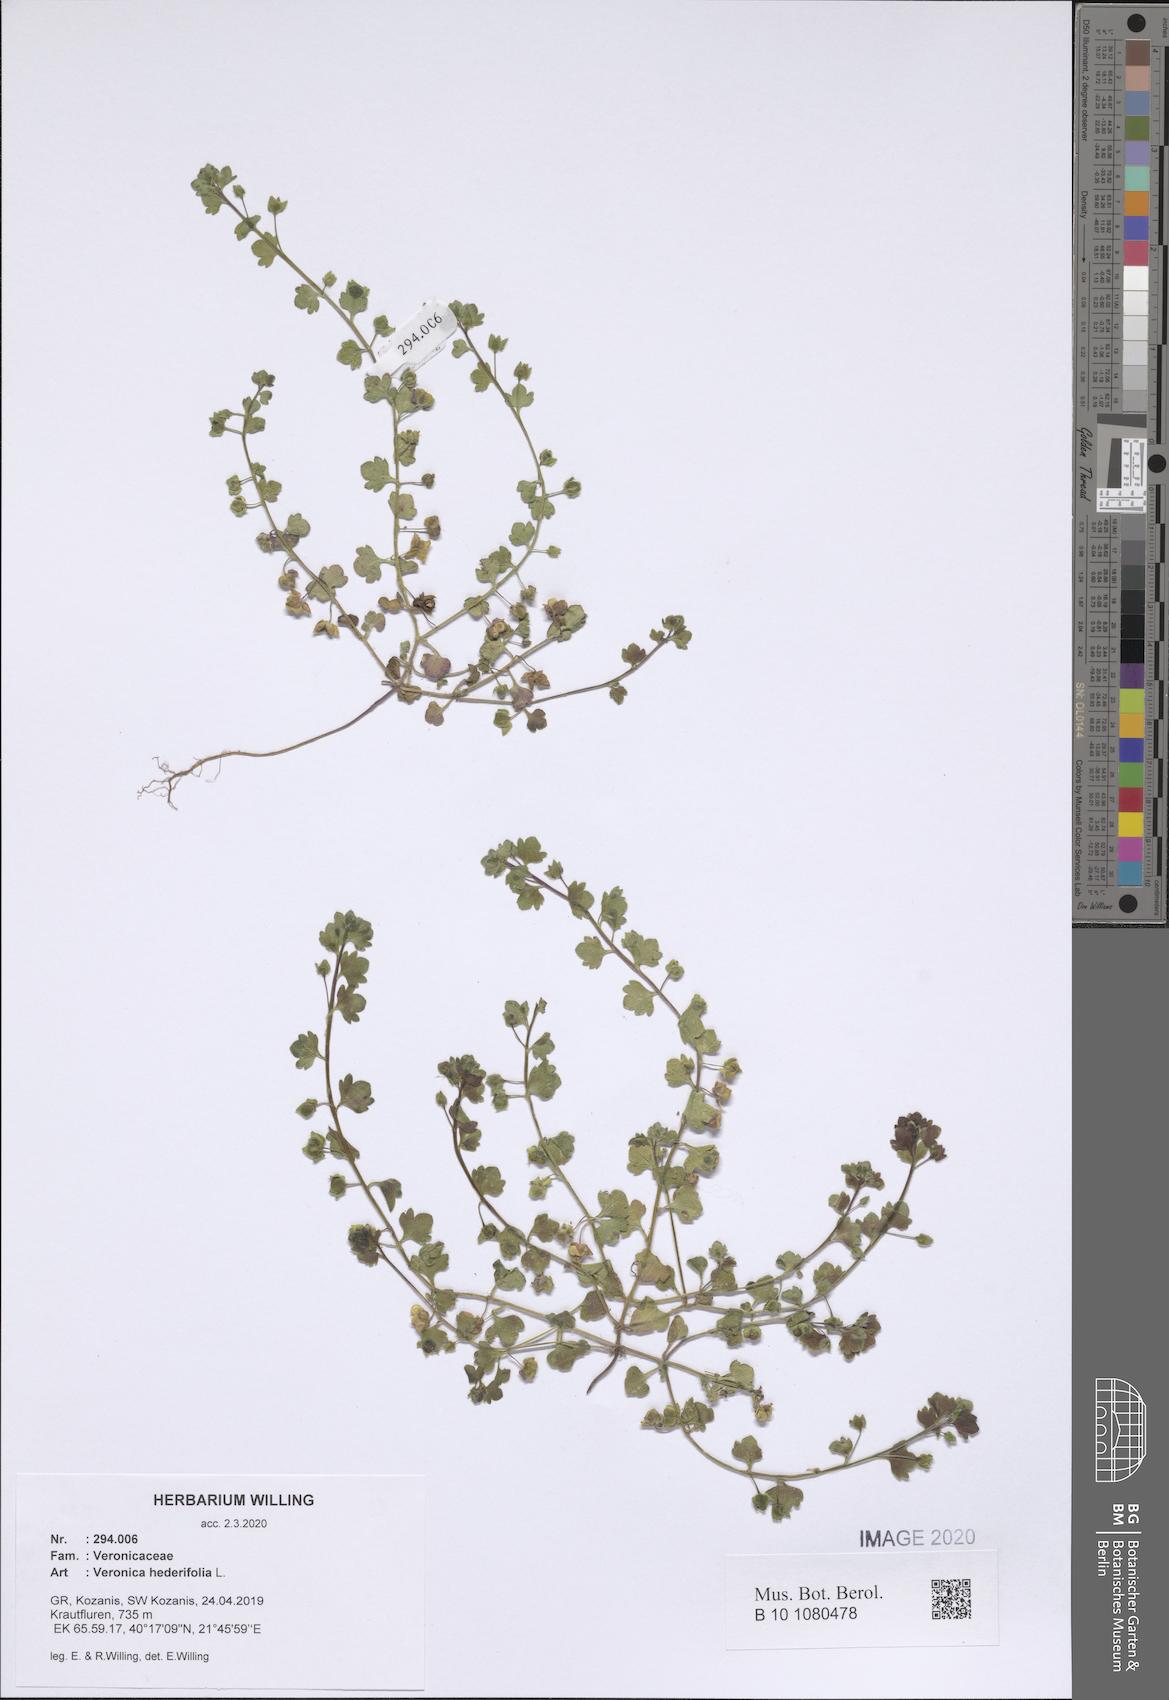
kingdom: Plantae
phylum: Tracheophyta
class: Magnoliopsida
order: Lamiales
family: Plantaginaceae
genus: Veronica
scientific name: Veronica hederifolia
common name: Ivy-leaved speedwell
